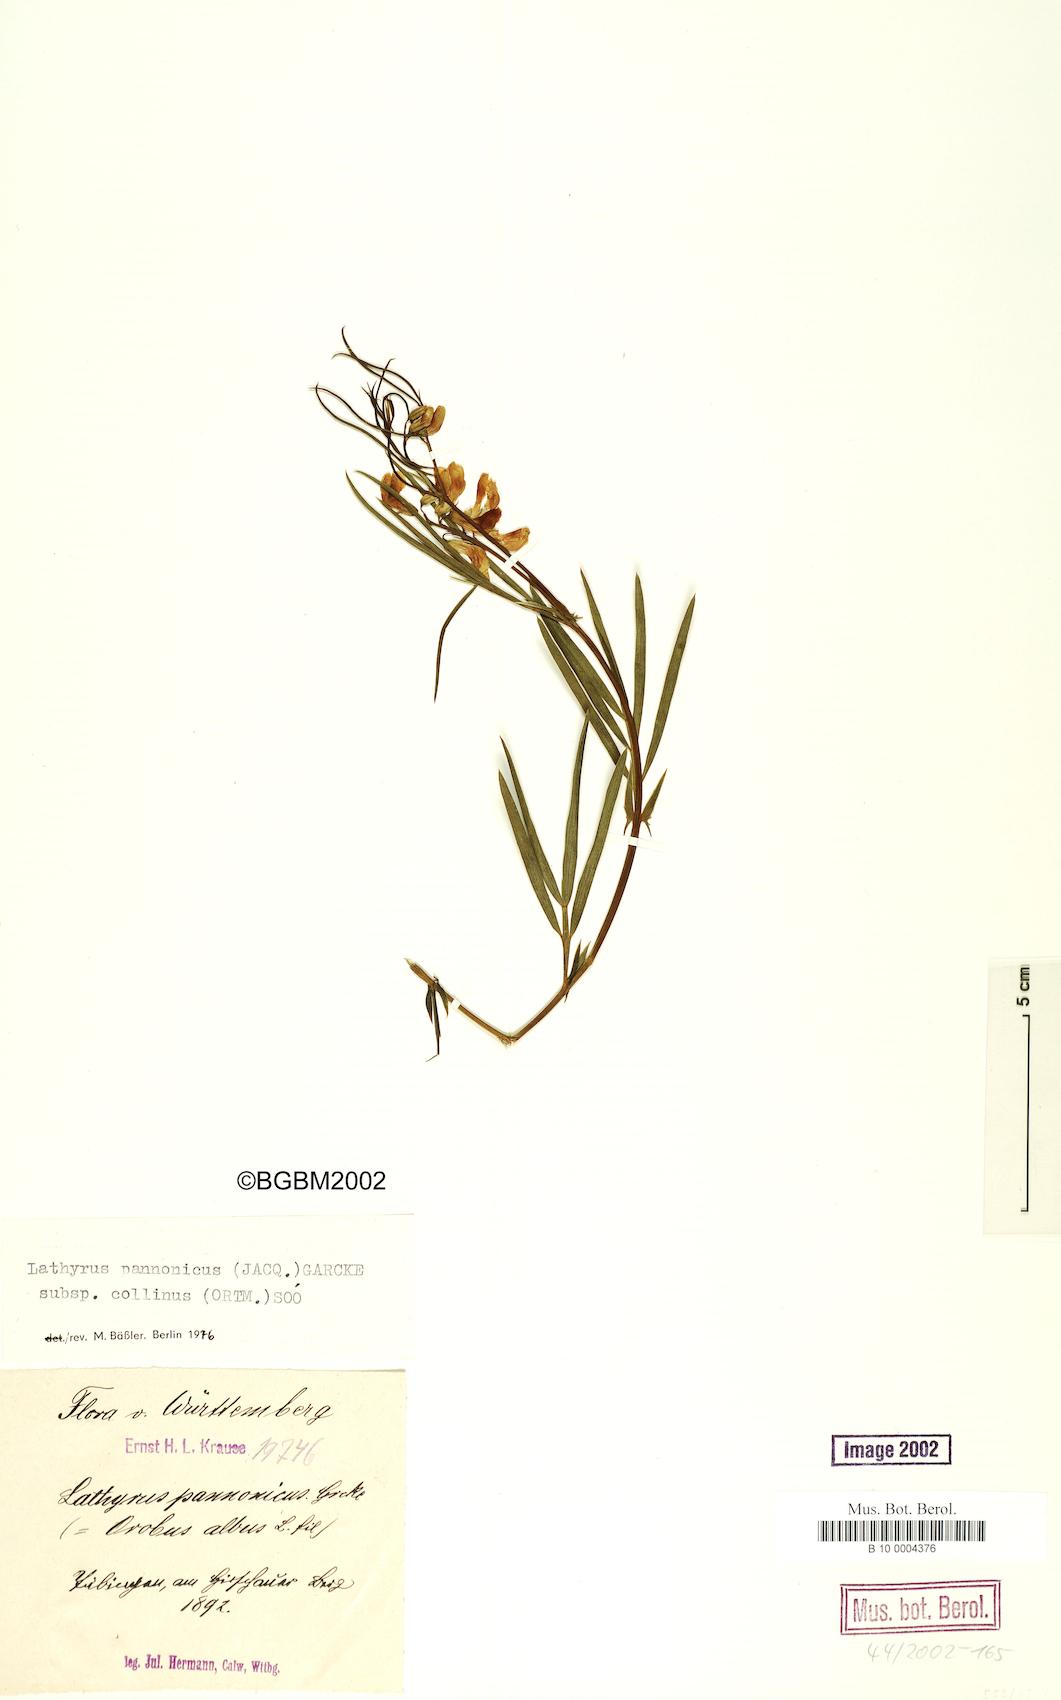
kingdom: Plantae
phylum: Tracheophyta
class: Magnoliopsida
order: Fabales
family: Fabaceae
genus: Lathyrus
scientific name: Lathyrus pannonicus
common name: Pea
